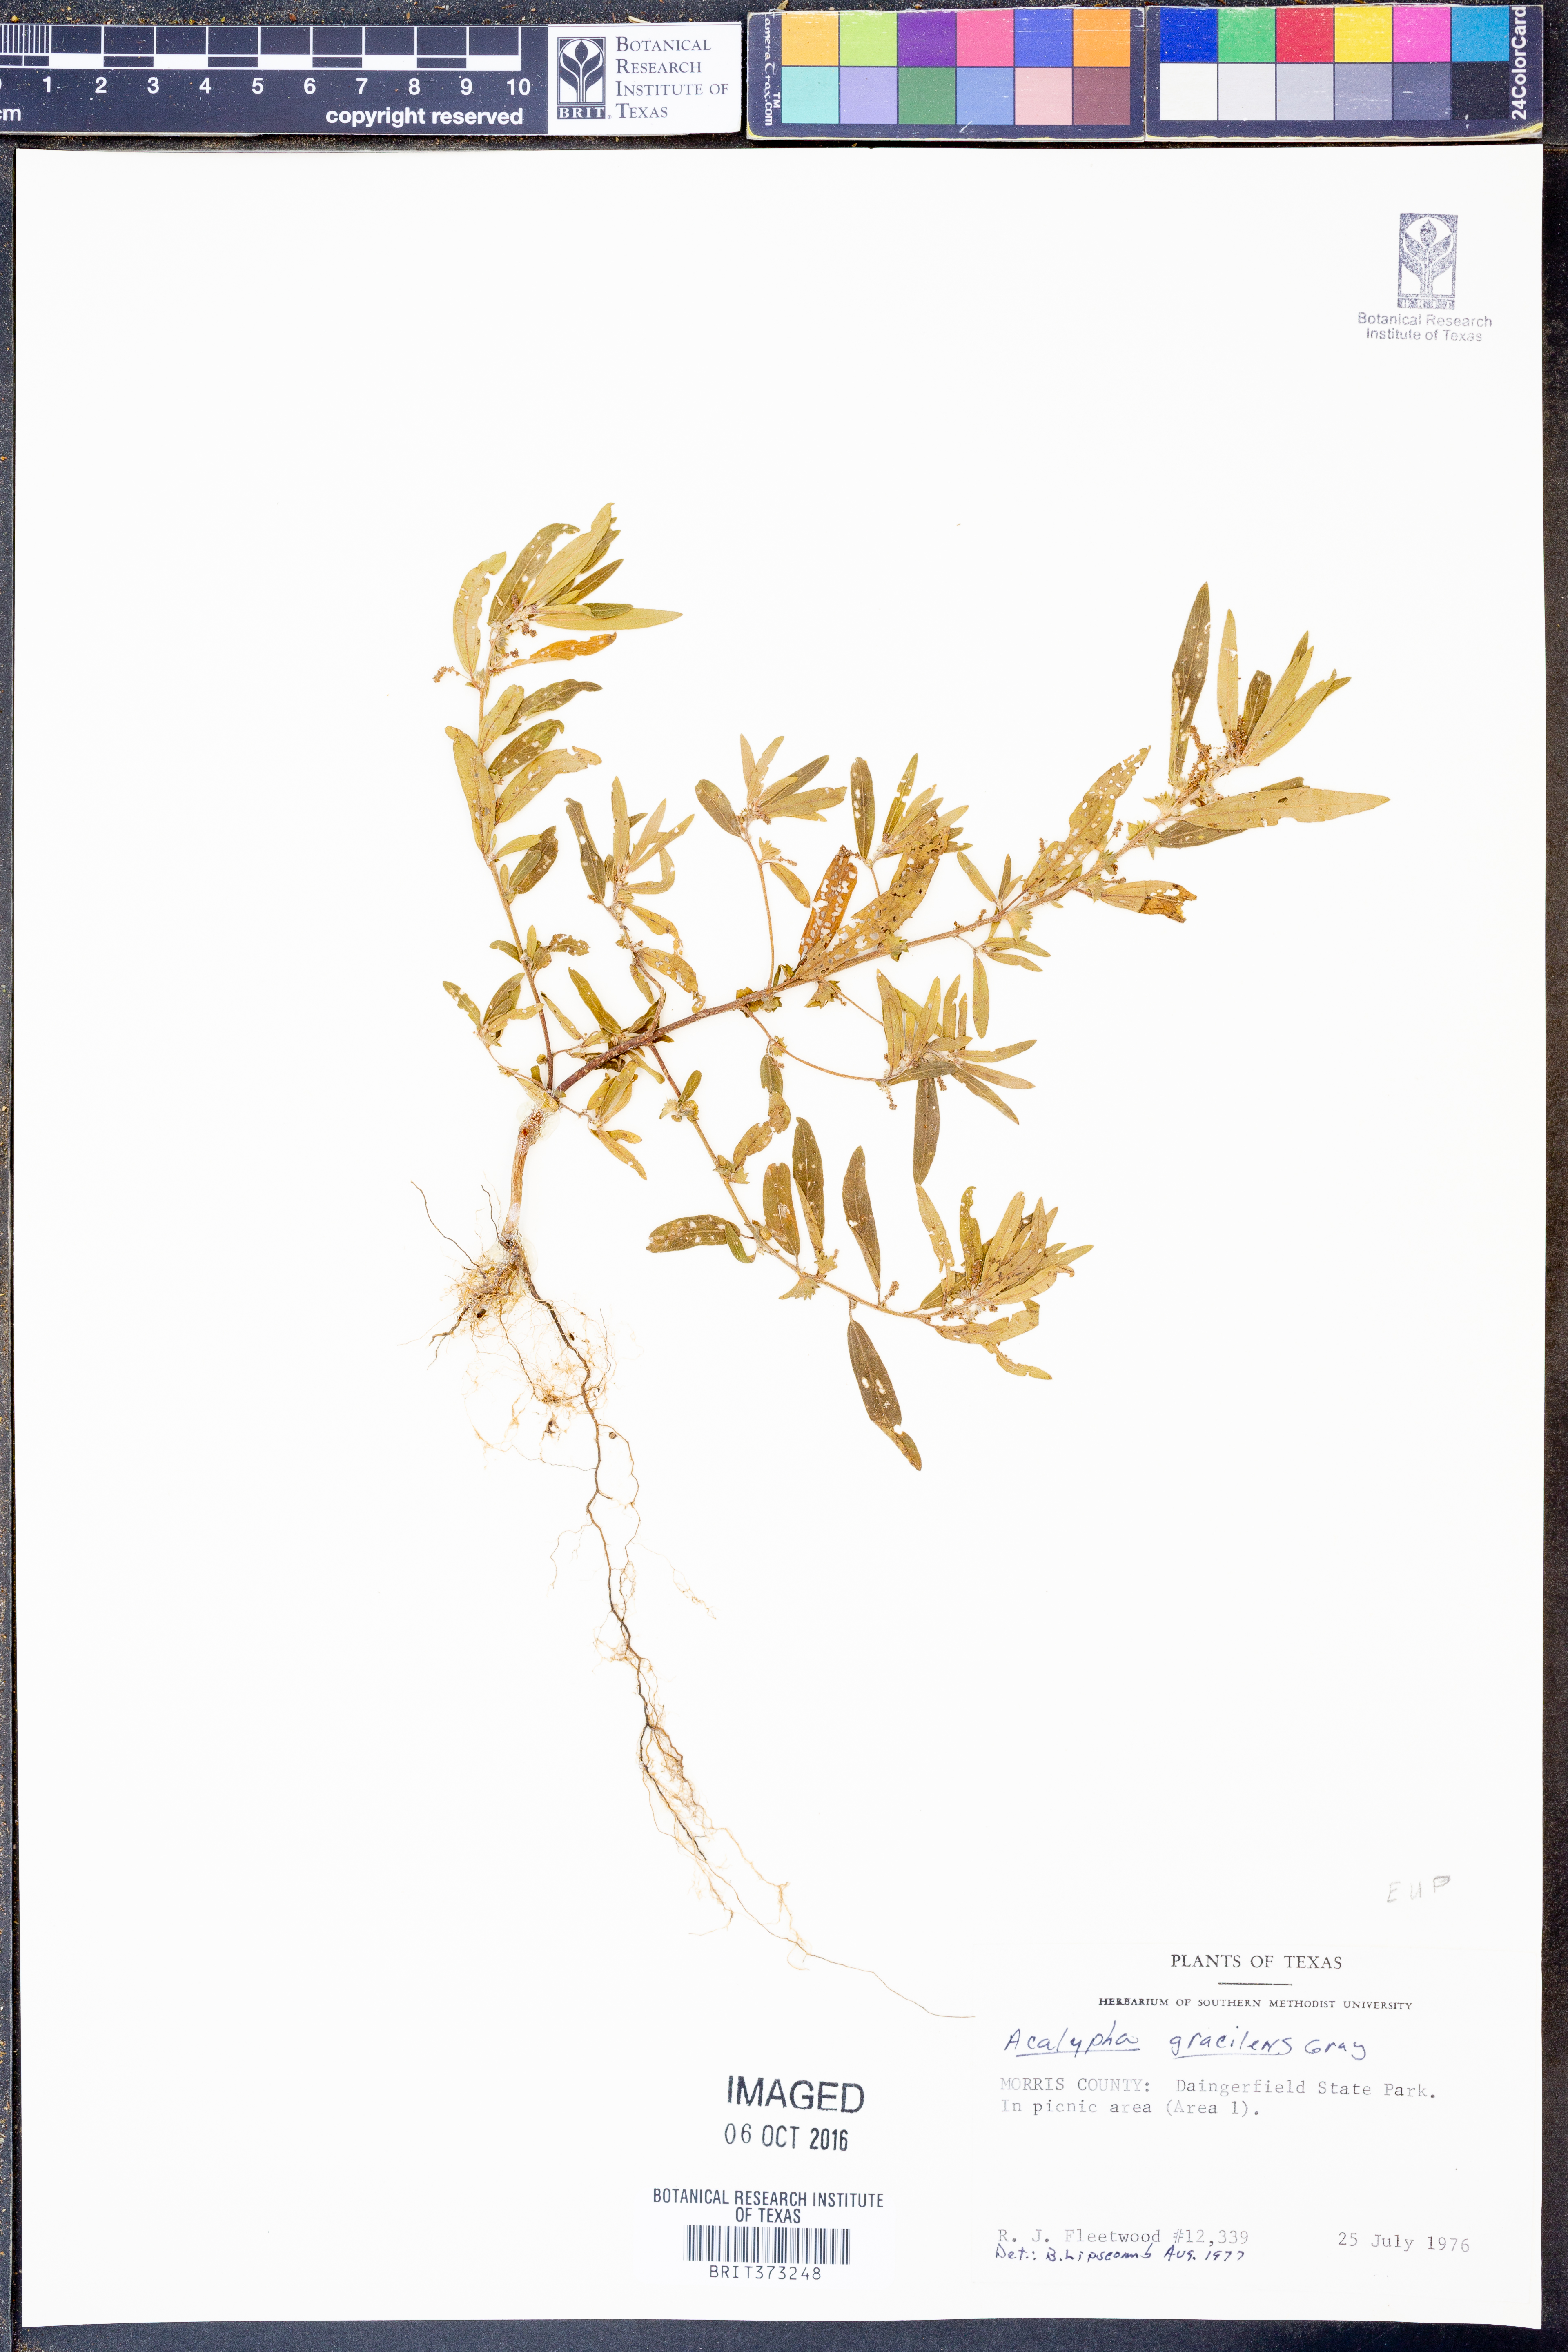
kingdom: Plantae
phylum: Tracheophyta
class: Magnoliopsida
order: Malpighiales
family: Euphorbiaceae
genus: Acalypha
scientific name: Acalypha gracilens
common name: Slender three-seeded mercury
